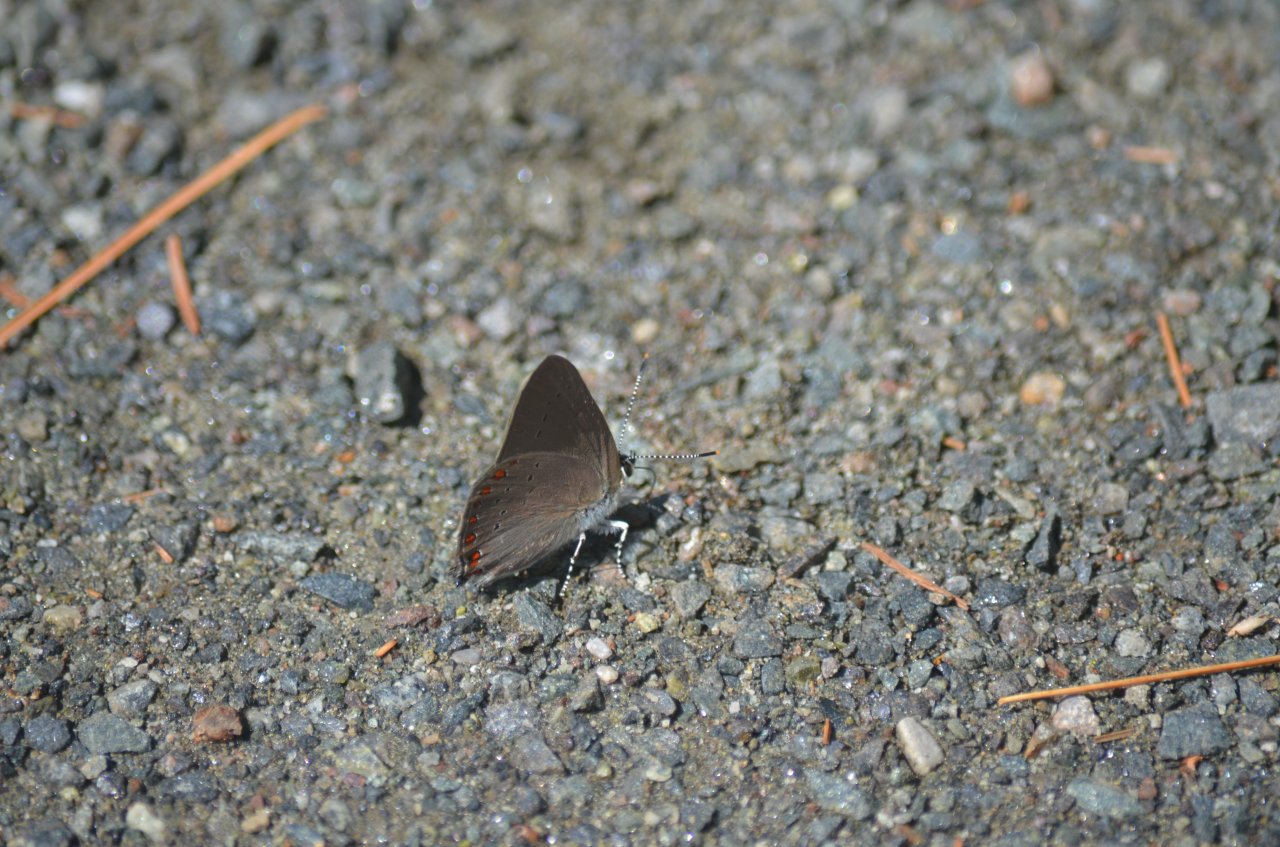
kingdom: Animalia
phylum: Arthropoda
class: Insecta
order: Lepidoptera
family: Lycaenidae
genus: Harkenclenus
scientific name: Harkenclenus titus
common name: Coral Hairstreak
